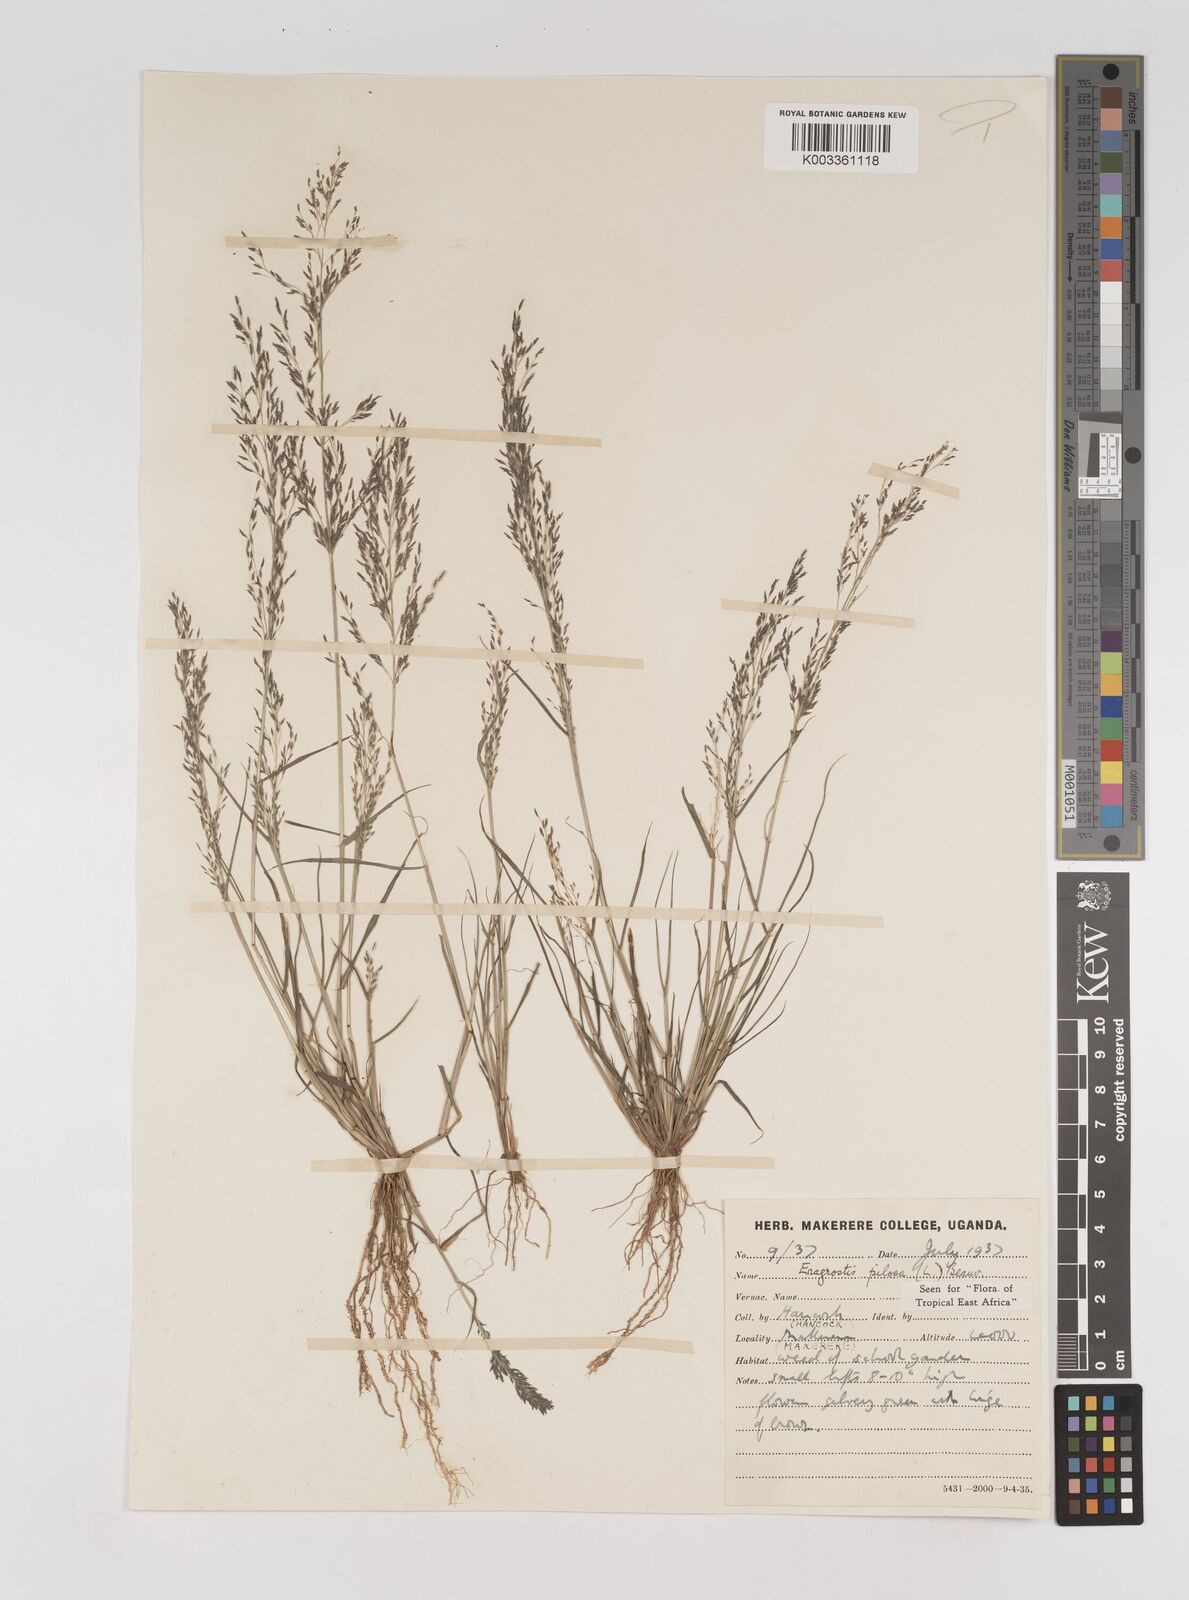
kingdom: Plantae
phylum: Tracheophyta
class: Liliopsida
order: Poales
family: Poaceae
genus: Eragrostis
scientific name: Eragrostis pilosa
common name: Indian lovegrass
